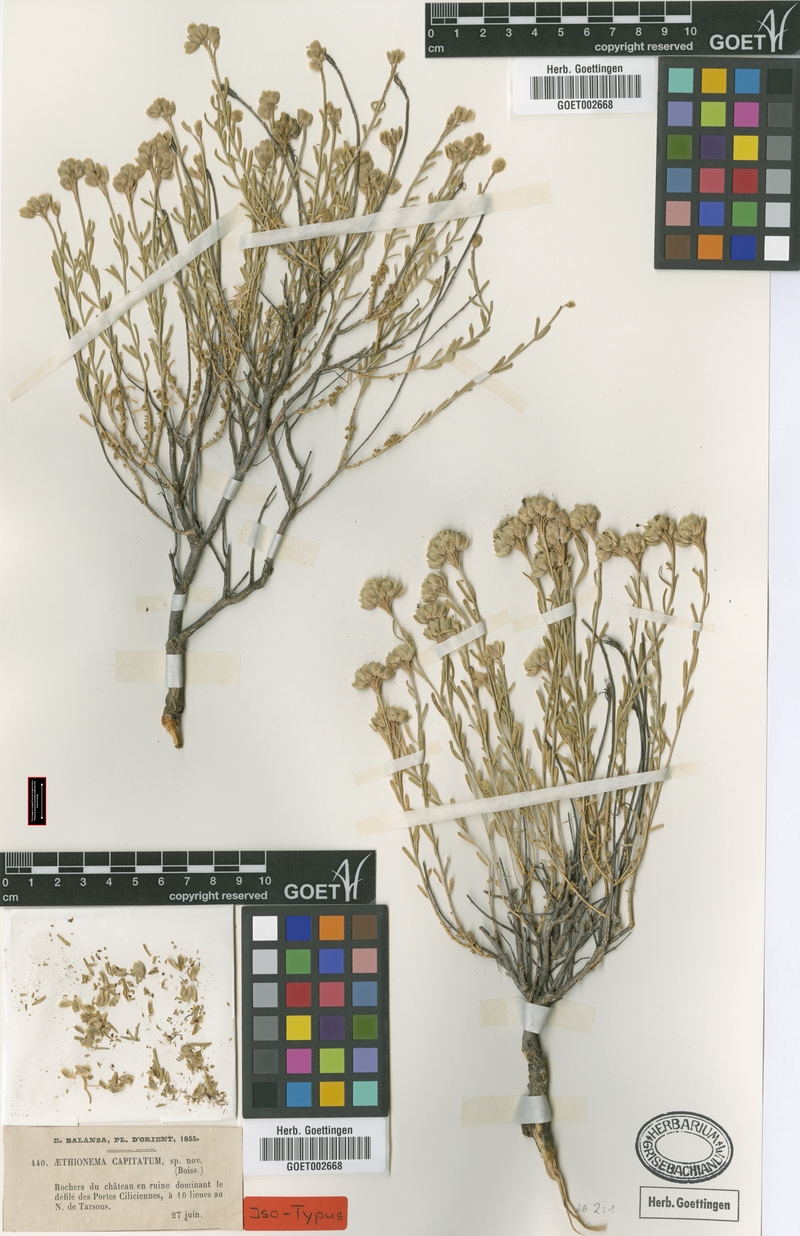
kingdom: Plantae
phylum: Tracheophyta
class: Magnoliopsida
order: Brassicales
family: Brassicaceae
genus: Aethionema
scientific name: Aethionema capitatum
